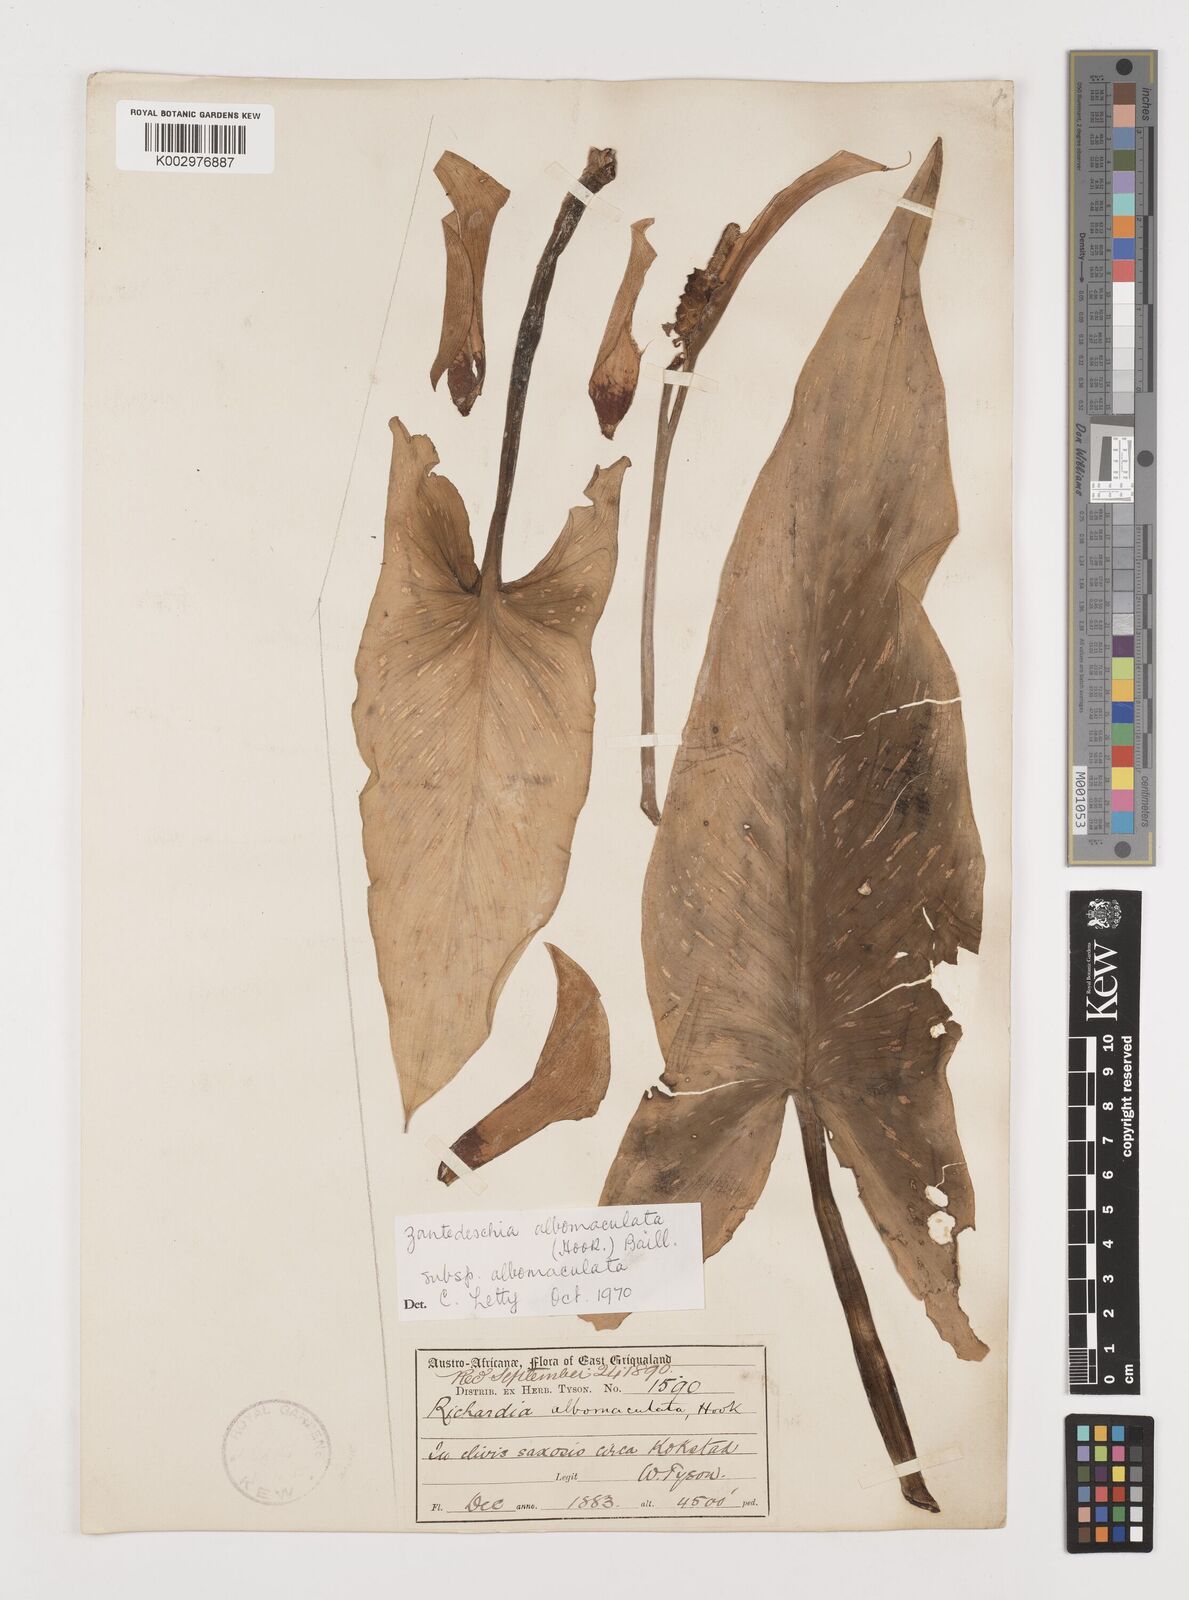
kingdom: Plantae
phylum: Tracheophyta
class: Liliopsida
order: Alismatales
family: Araceae
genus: Zantedeschia
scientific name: Zantedeschia albomaculata
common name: Spotted calla lily
